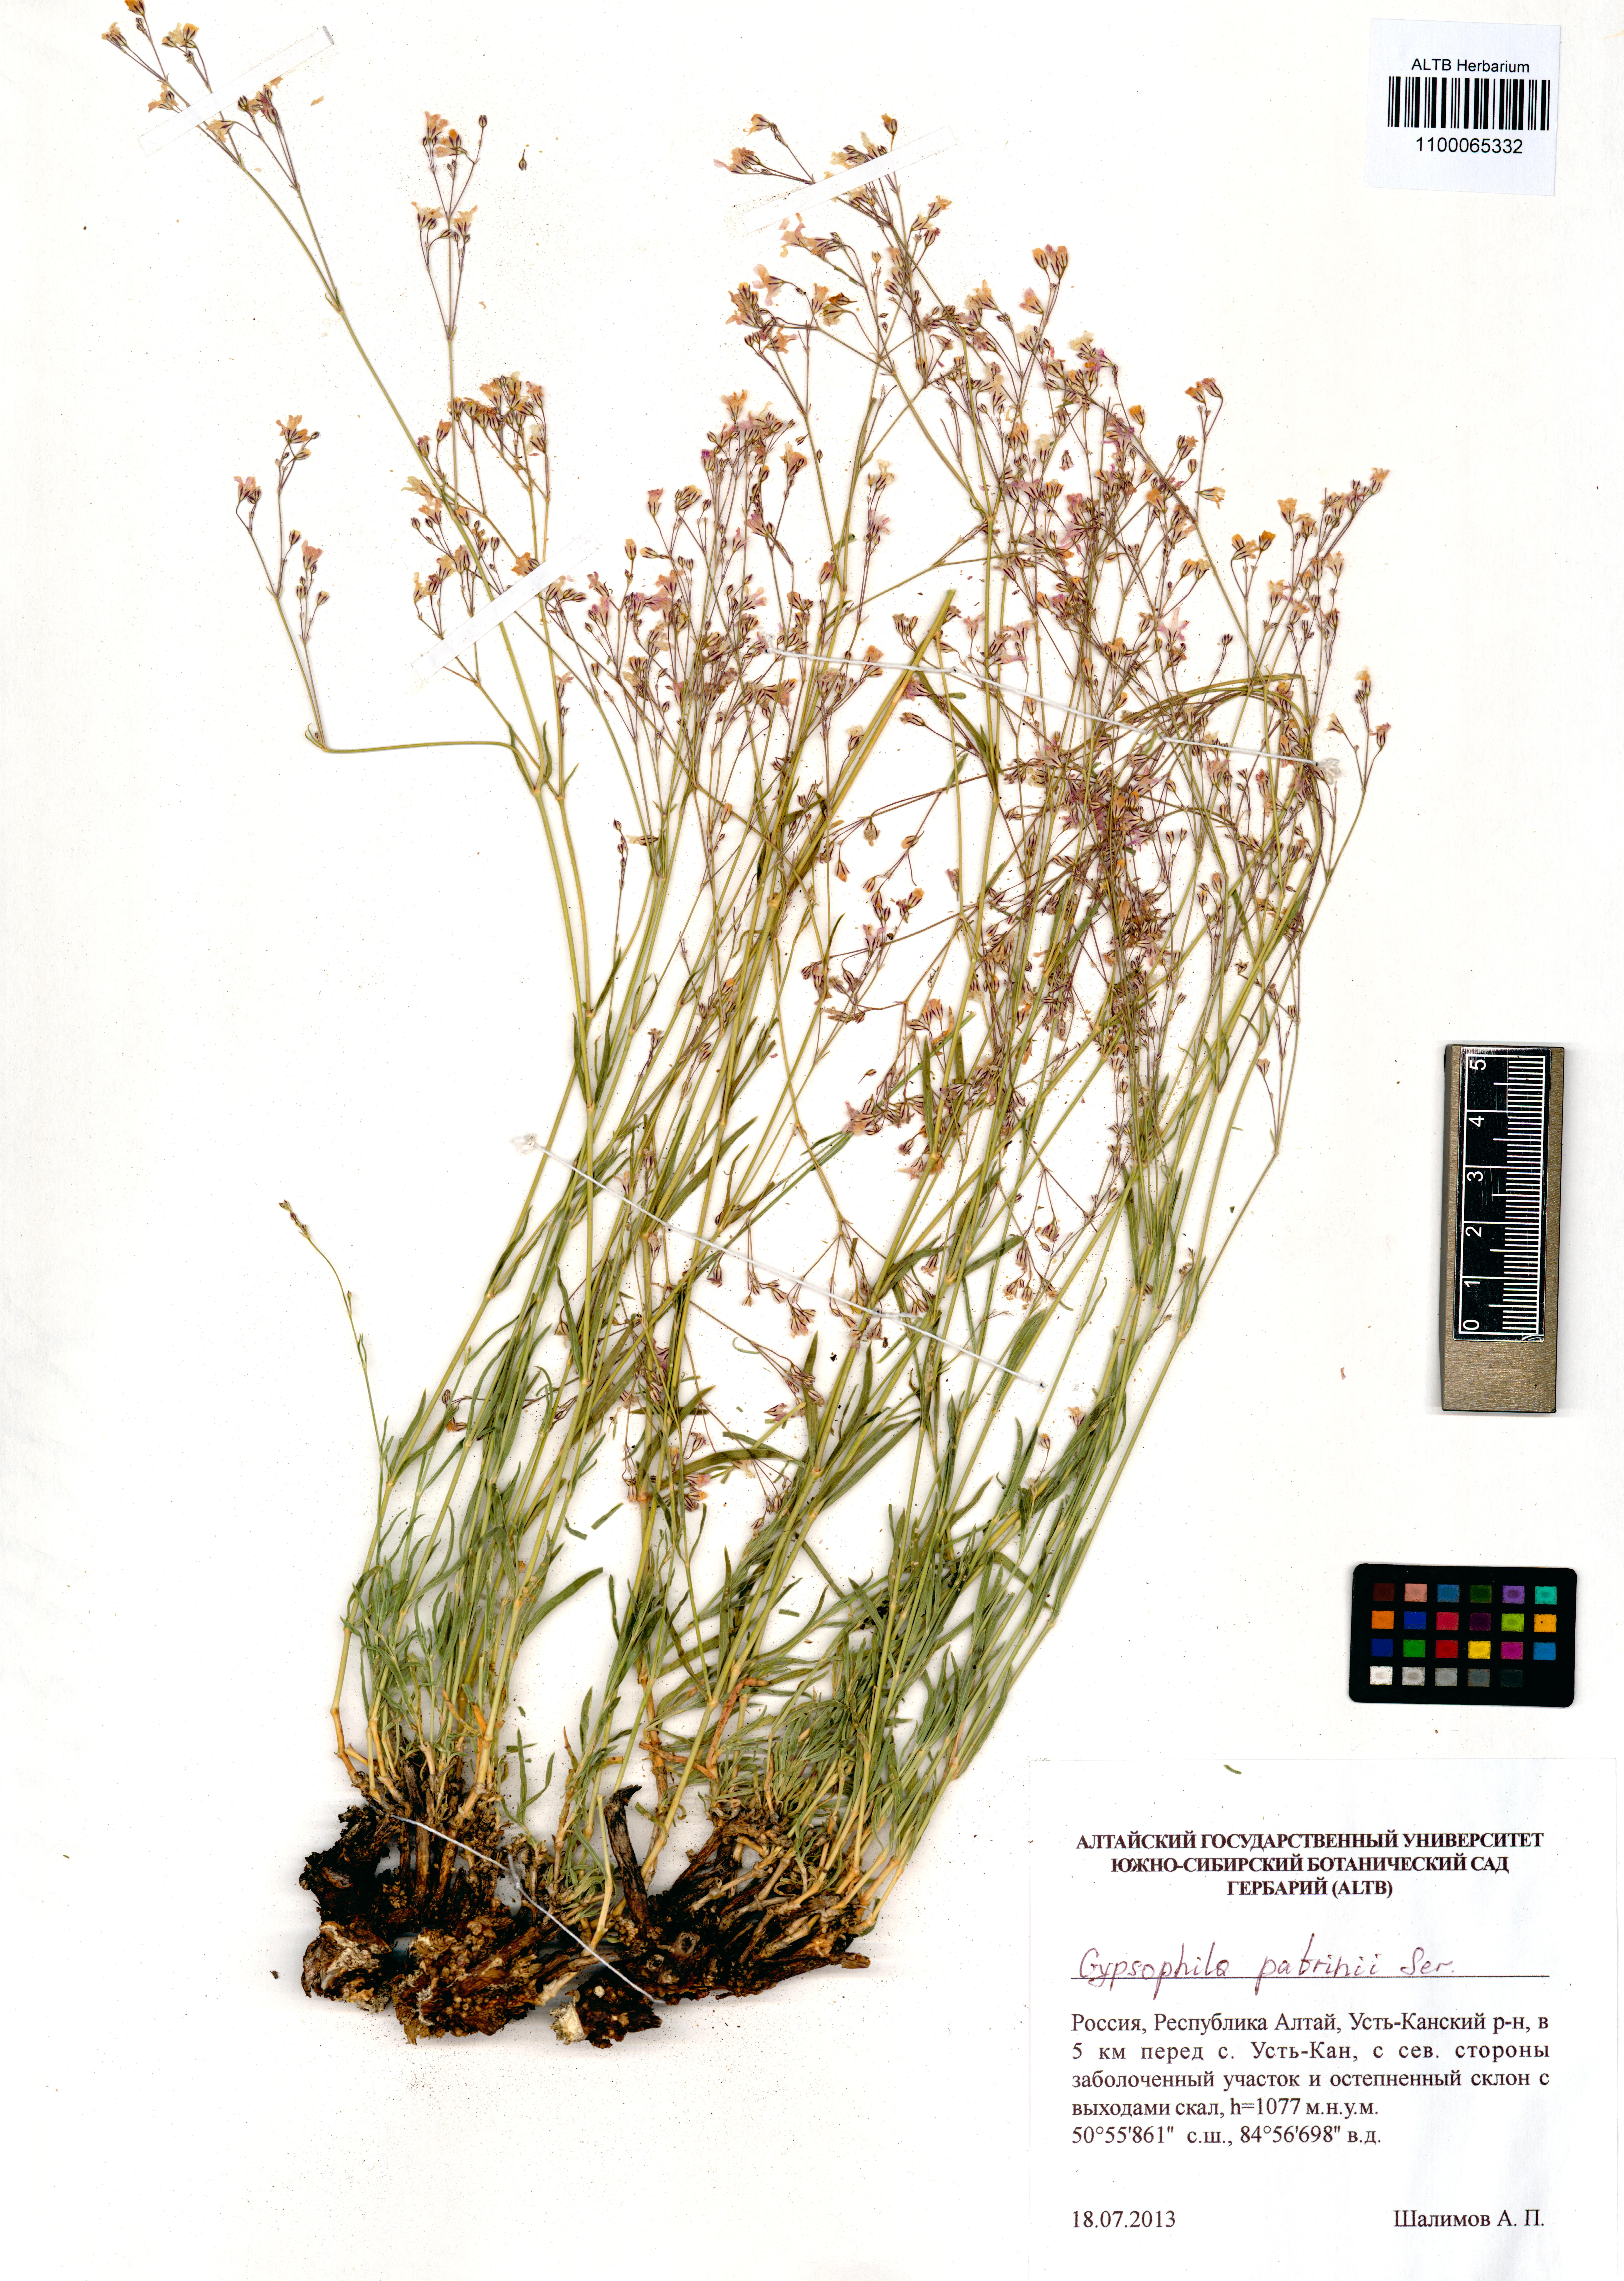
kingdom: Plantae
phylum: Tracheophyta
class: Magnoliopsida
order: Caryophyllales
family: Caryophyllaceae
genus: Gypsophila
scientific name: Gypsophila patrinii
